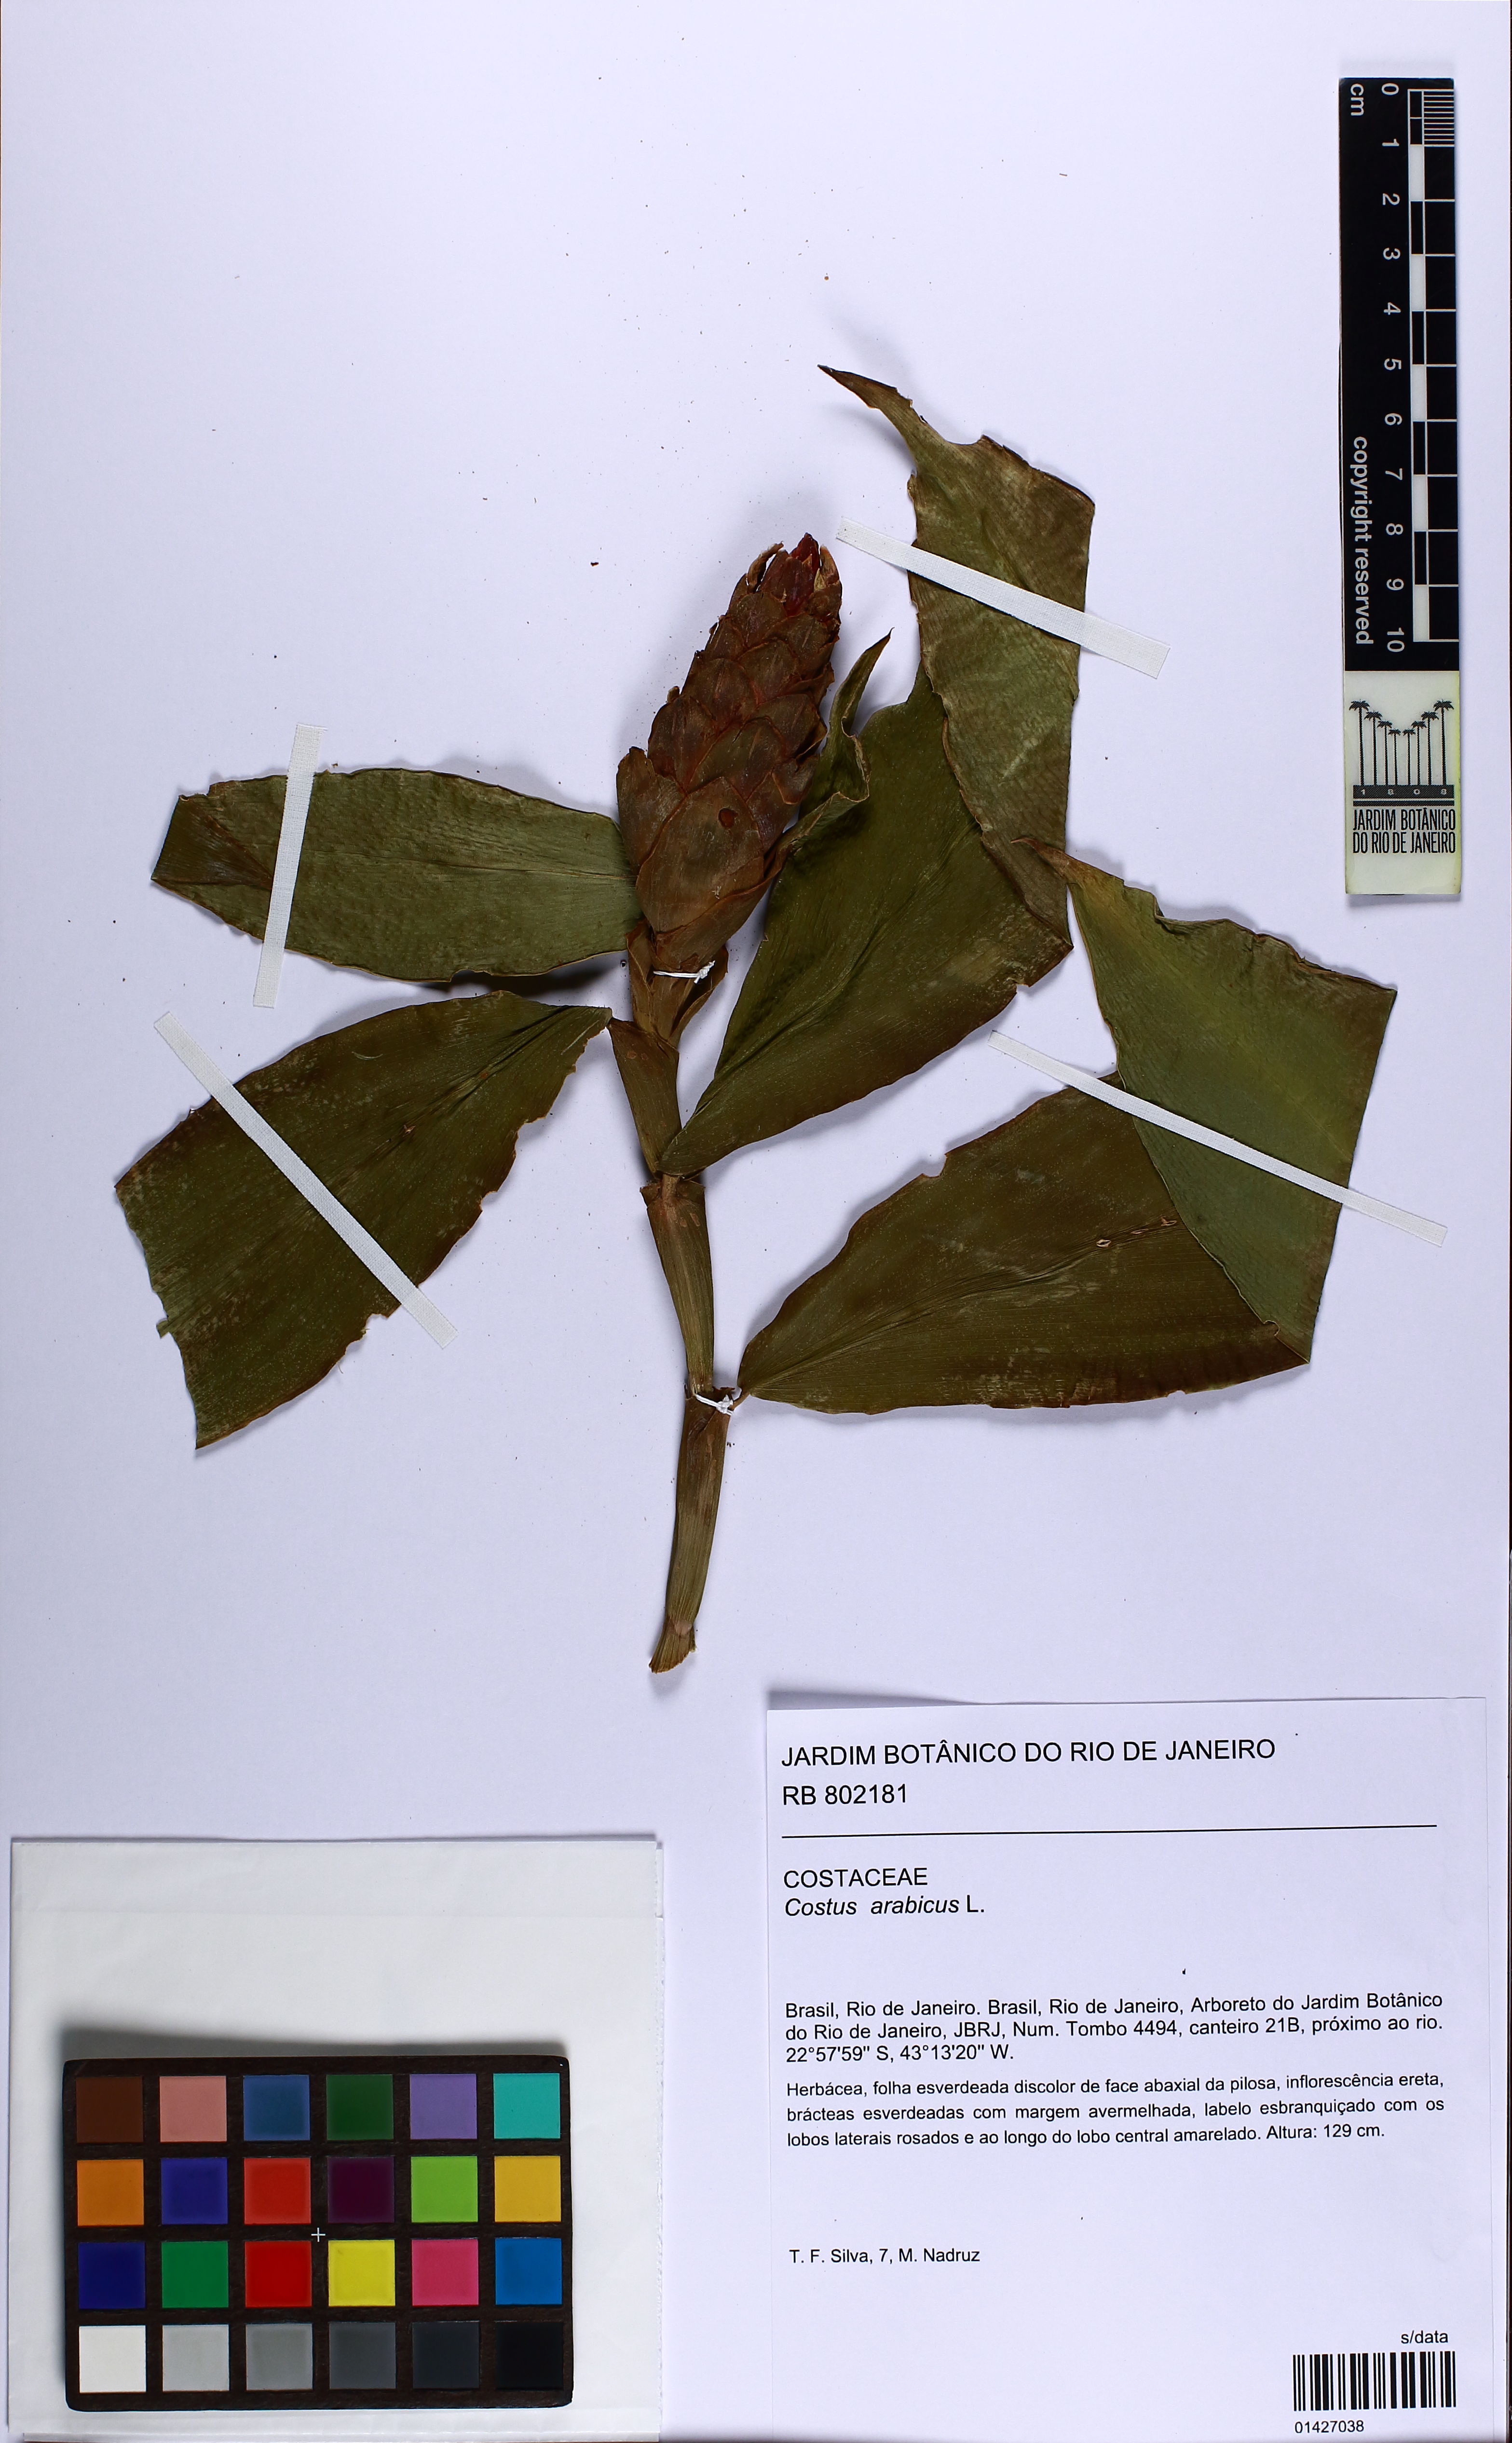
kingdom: Plantae
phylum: Tracheophyta
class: Liliopsida
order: Zingiberales
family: Costaceae
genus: Costus
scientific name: Costus arabicus
